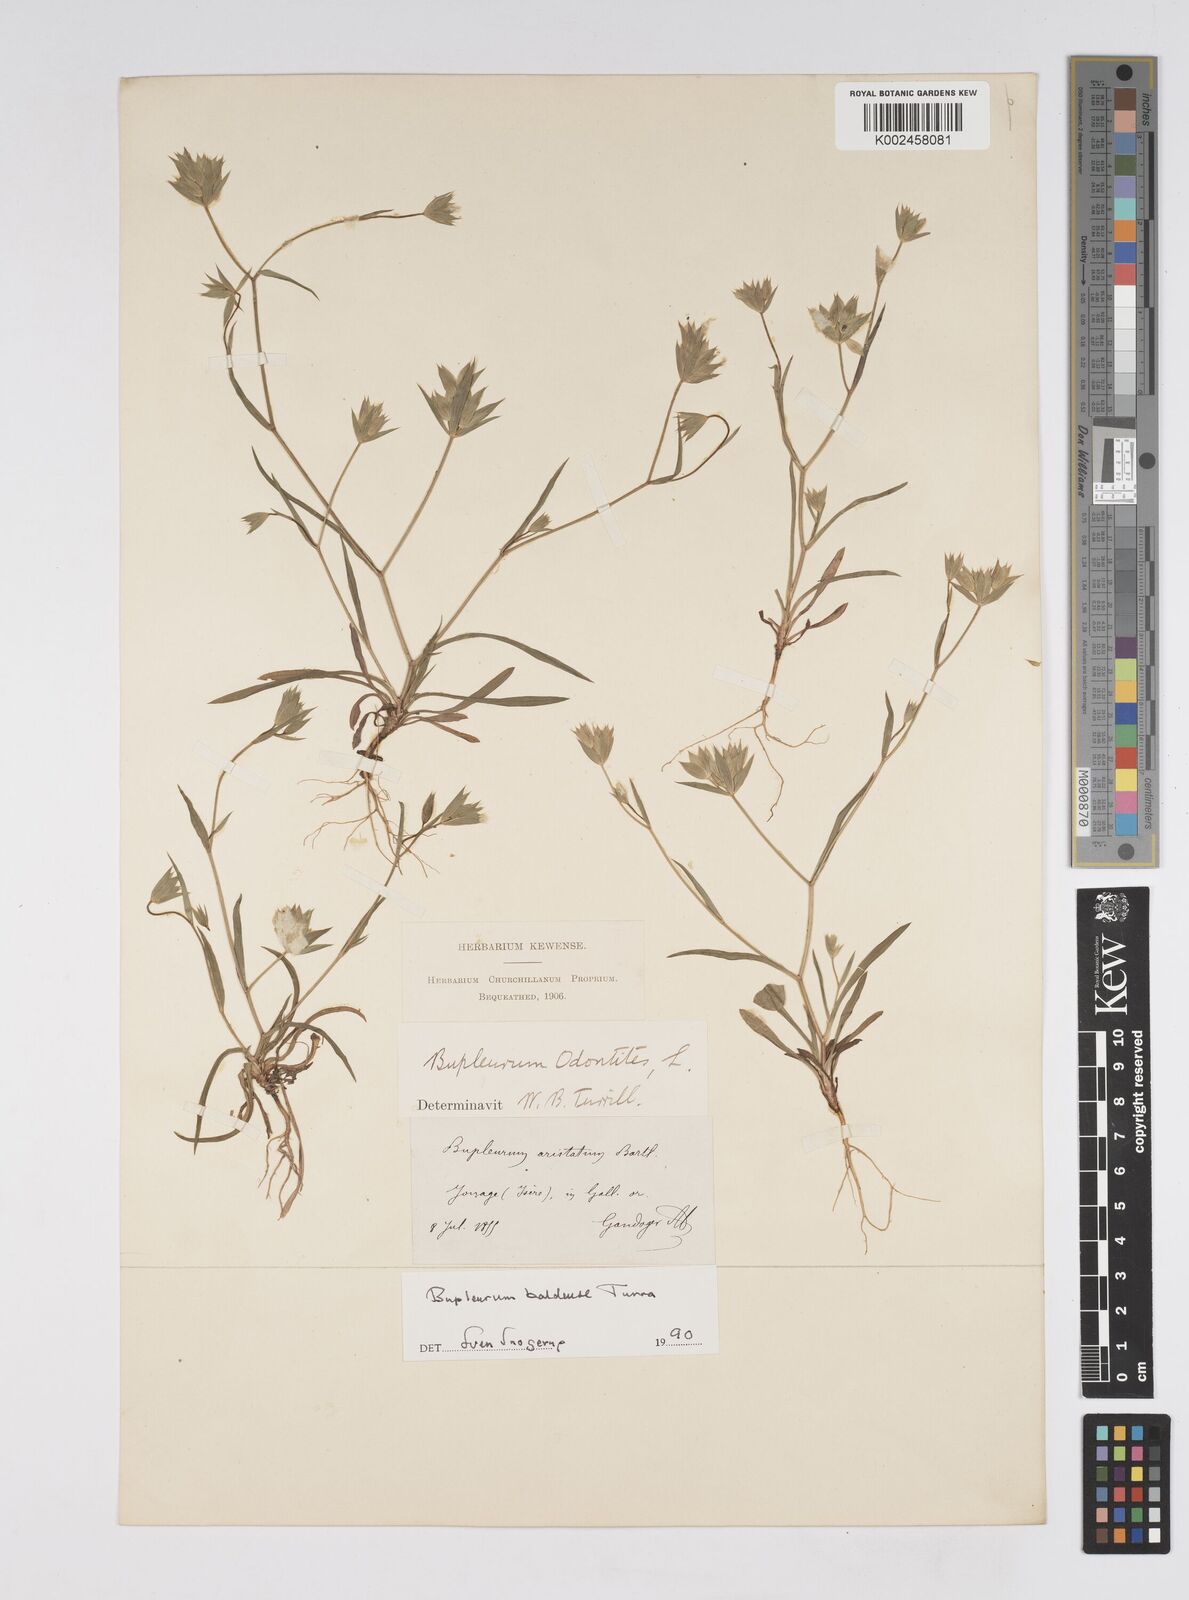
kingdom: Plantae
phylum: Tracheophyta
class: Magnoliopsida
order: Apiales
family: Apiaceae
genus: Bupleurum
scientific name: Bupleurum baldense
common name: Small hare's-ear
